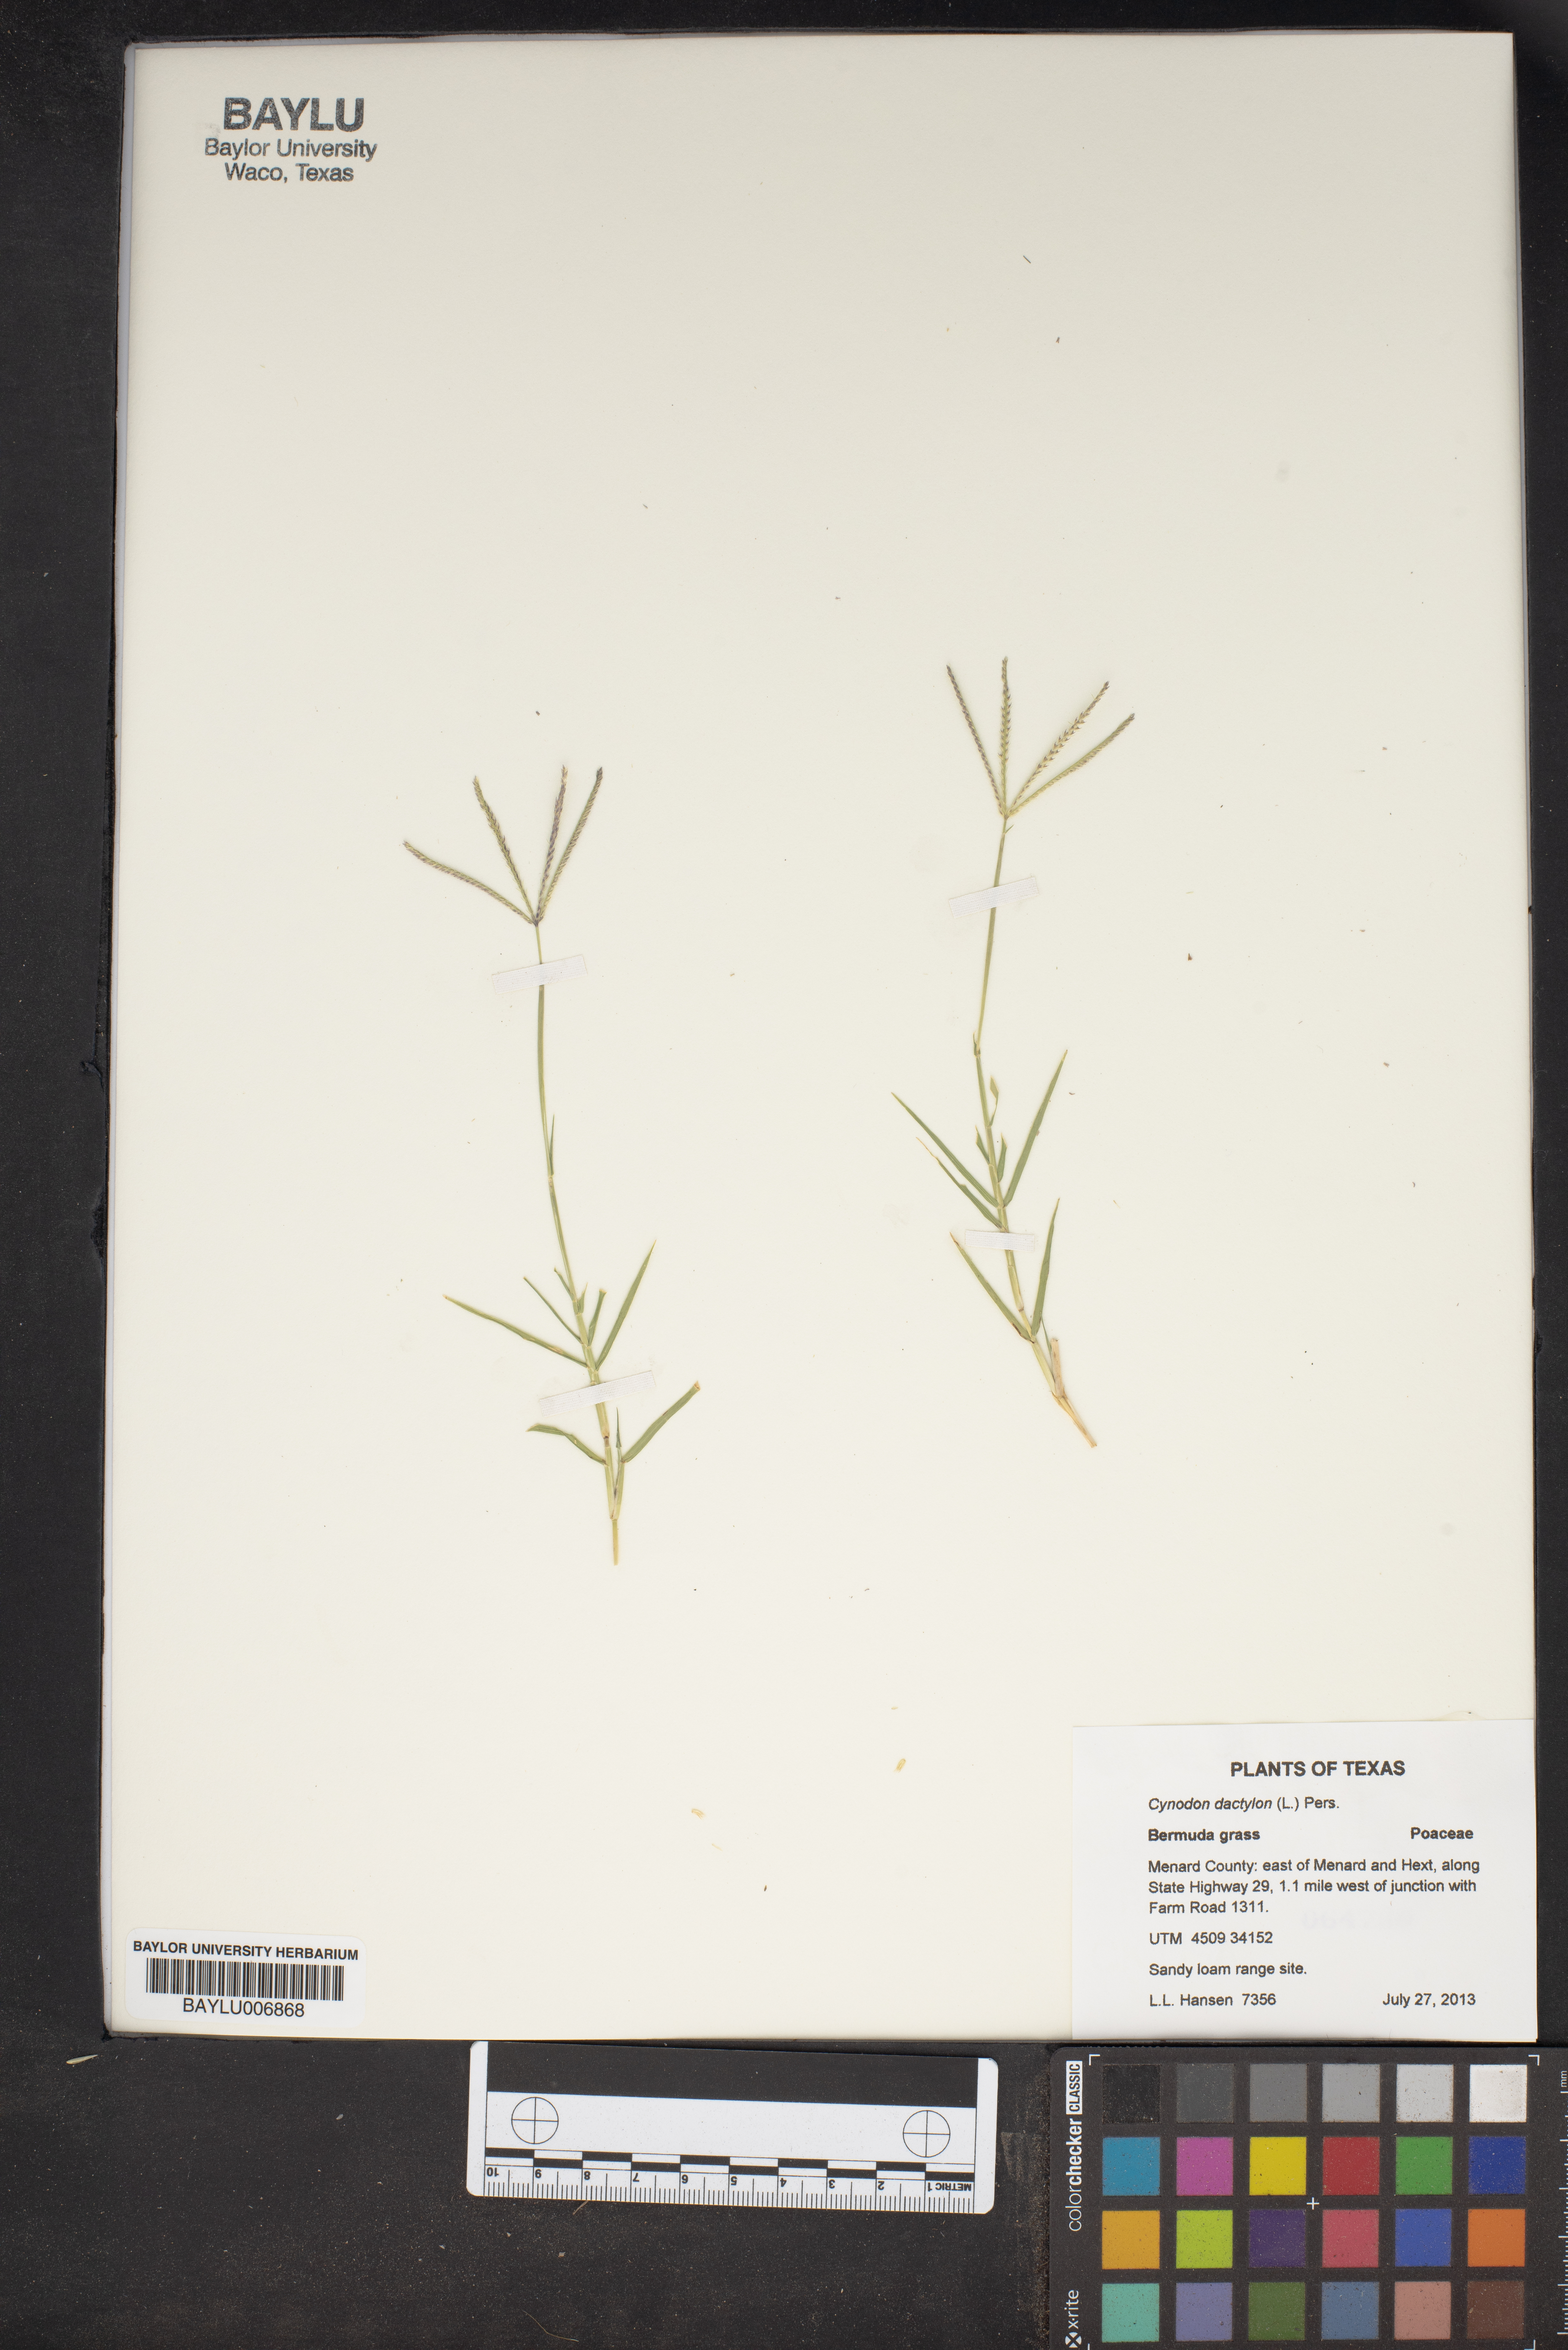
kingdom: Plantae
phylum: Tracheophyta
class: Liliopsida
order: Poales
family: Poaceae
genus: Cynodon
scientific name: Cynodon dactylon
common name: Bermuda grass
